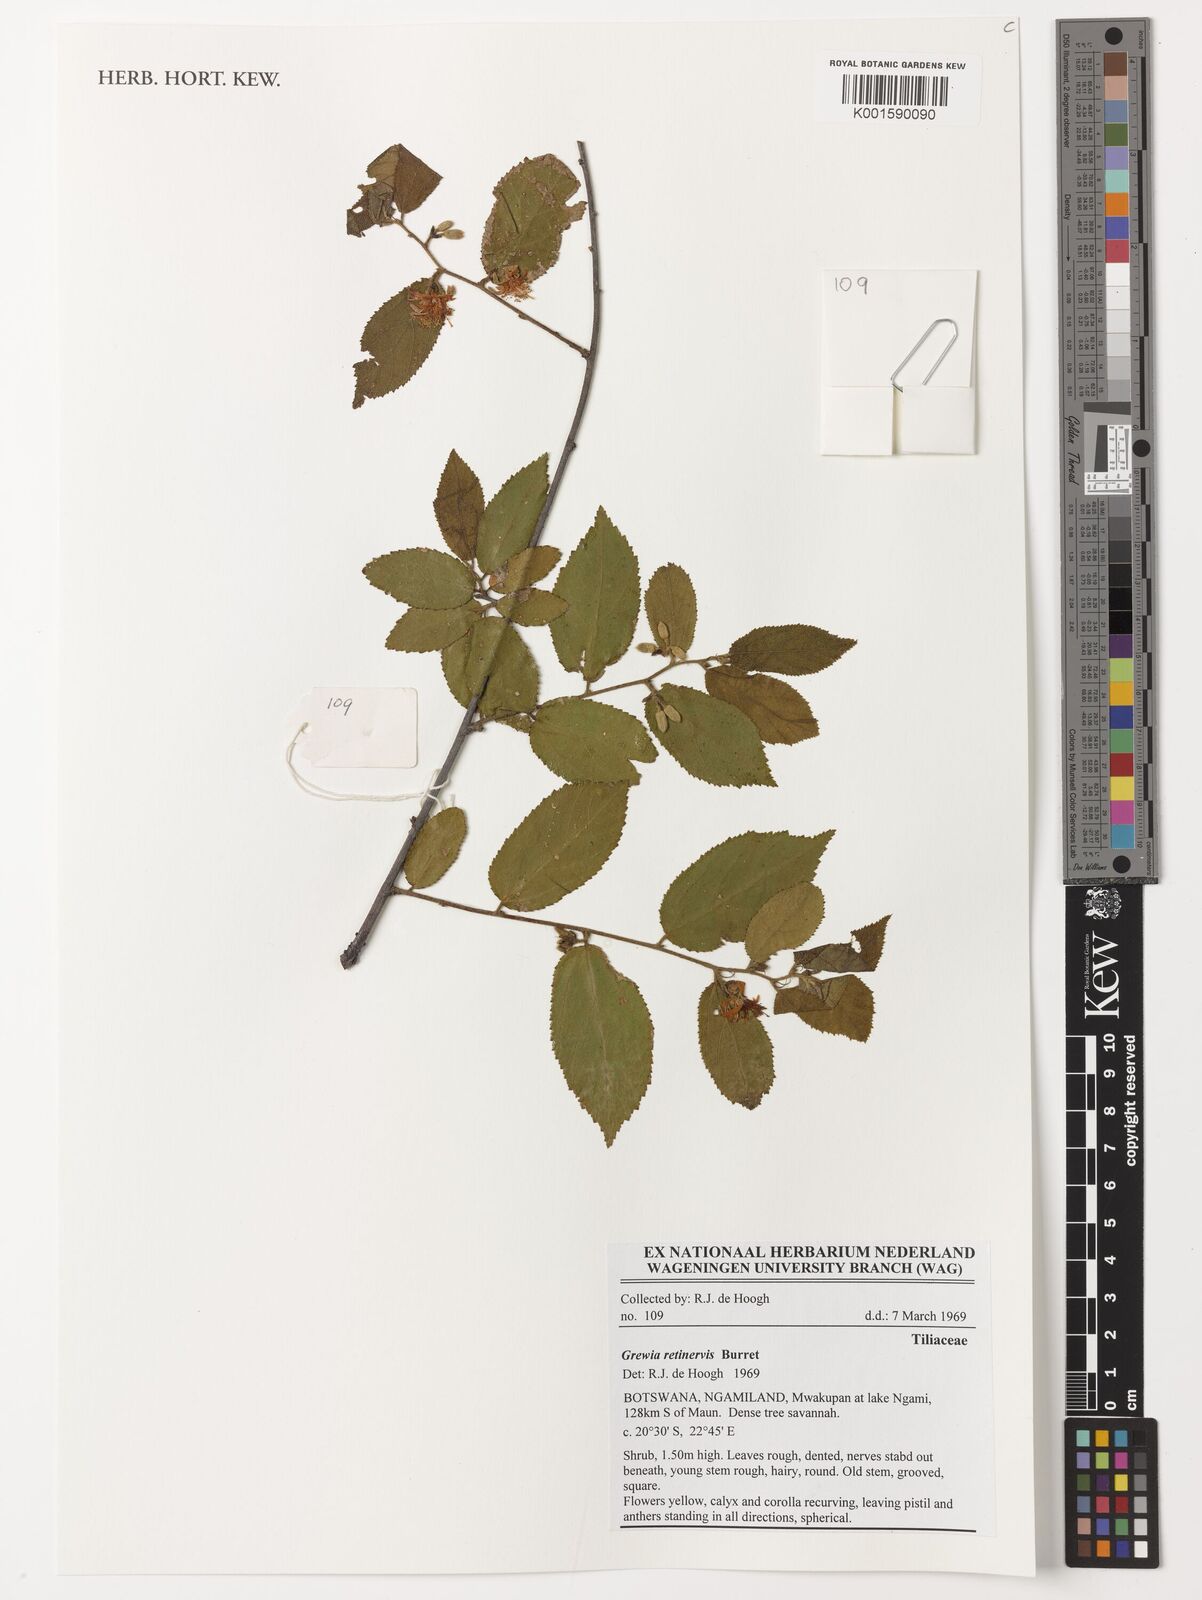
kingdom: Plantae
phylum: Tracheophyta
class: Magnoliopsida
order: Malvales
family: Malvaceae
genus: Grewia
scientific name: Grewia retinervis
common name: Kalahari raisin
